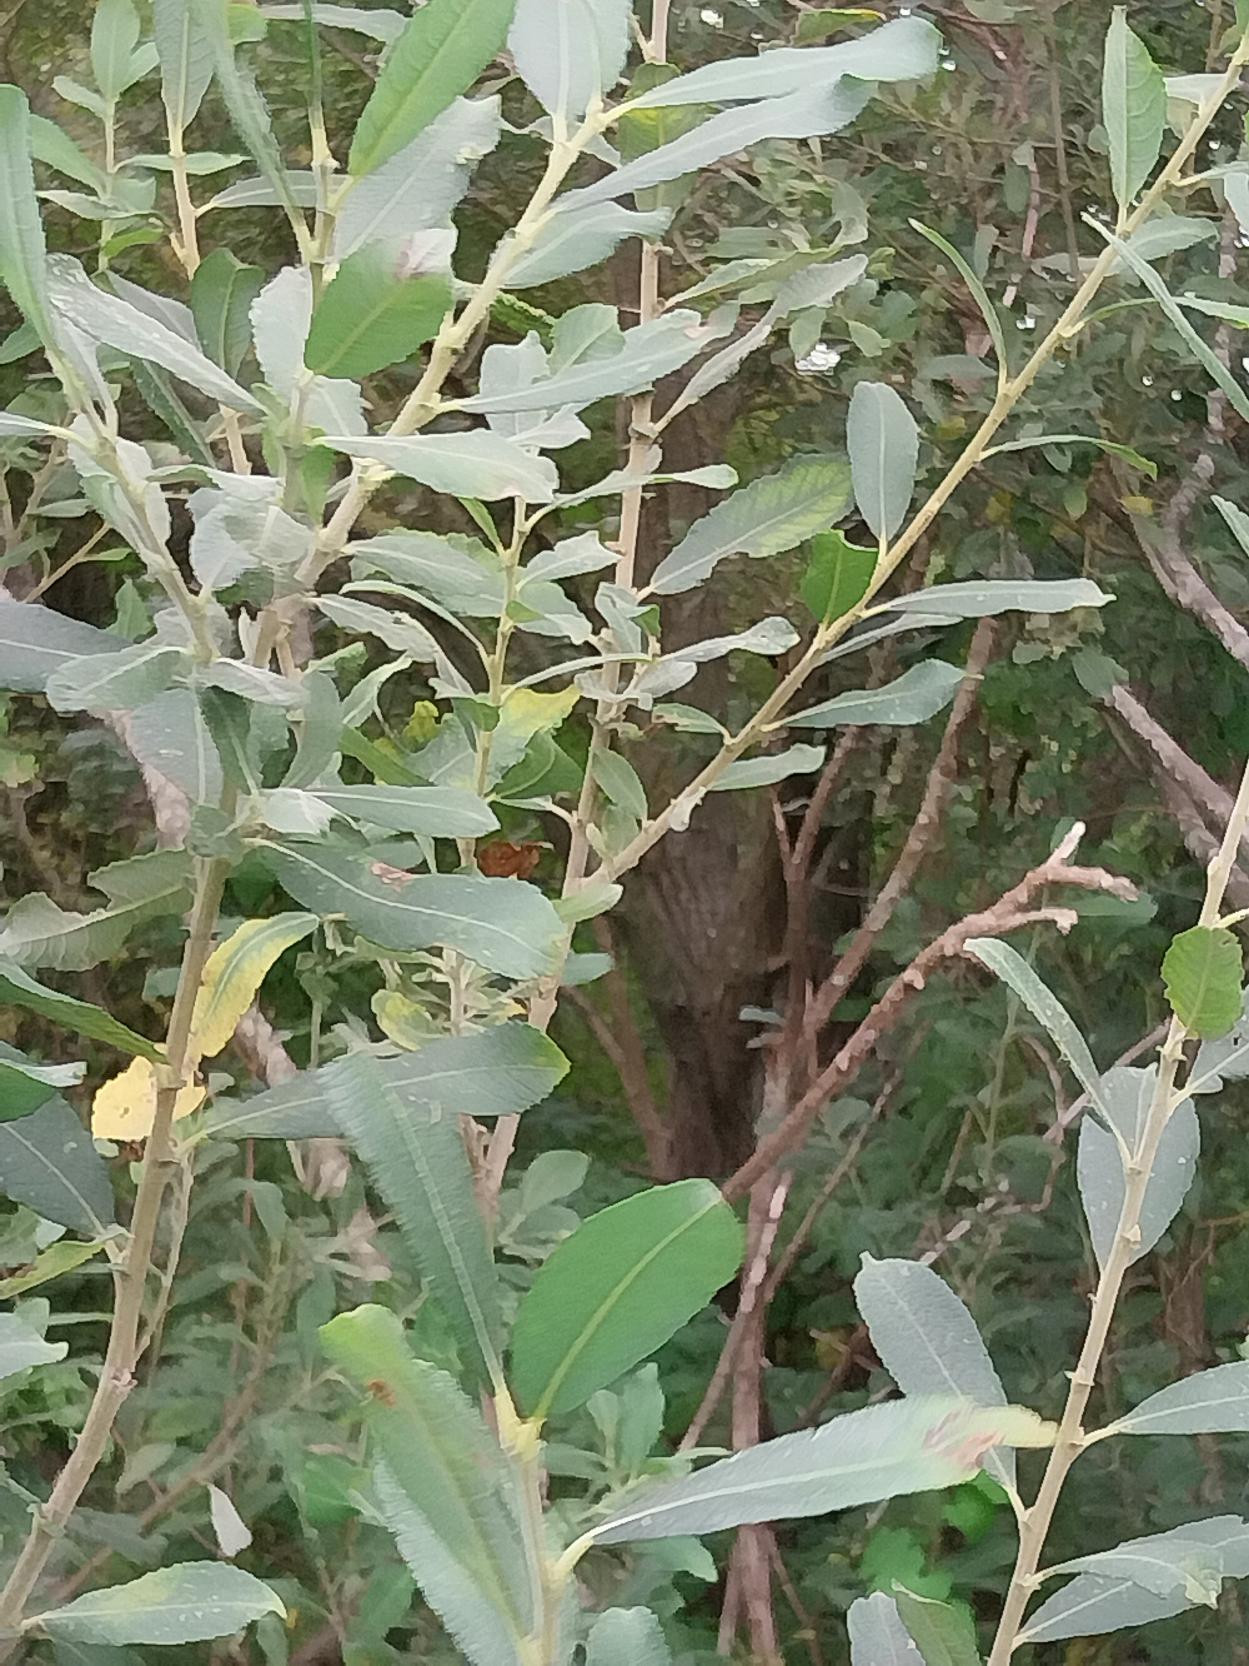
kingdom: Plantae
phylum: Tracheophyta
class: Magnoliopsida
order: Malpighiales
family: Salicaceae
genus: Salix
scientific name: Salix cinerea
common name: Grå-pil
